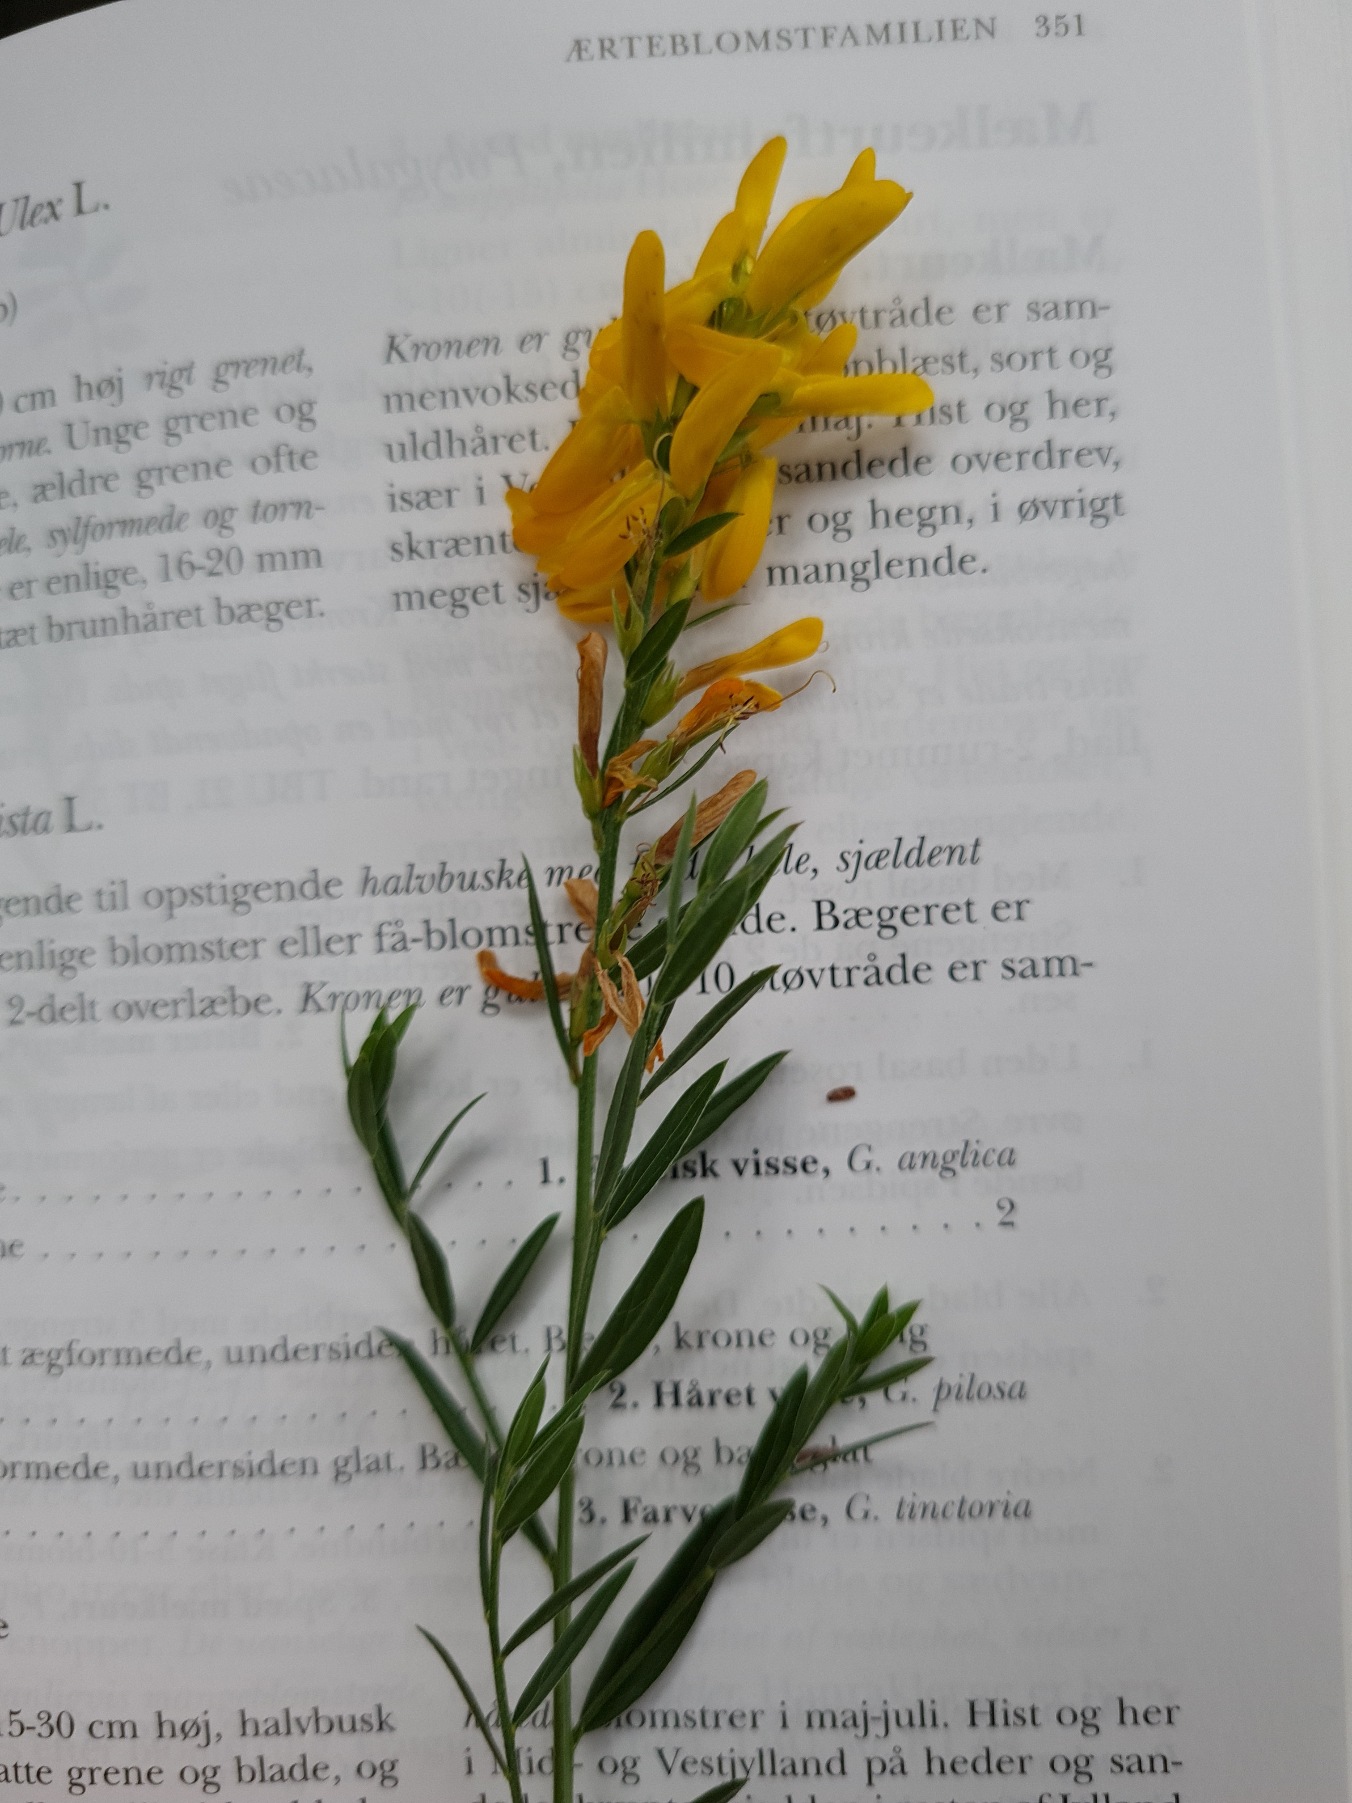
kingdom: Plantae
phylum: Tracheophyta
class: Magnoliopsida
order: Fabales
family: Fabaceae
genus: Genista
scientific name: Genista tinctoria
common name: Farve-visse
